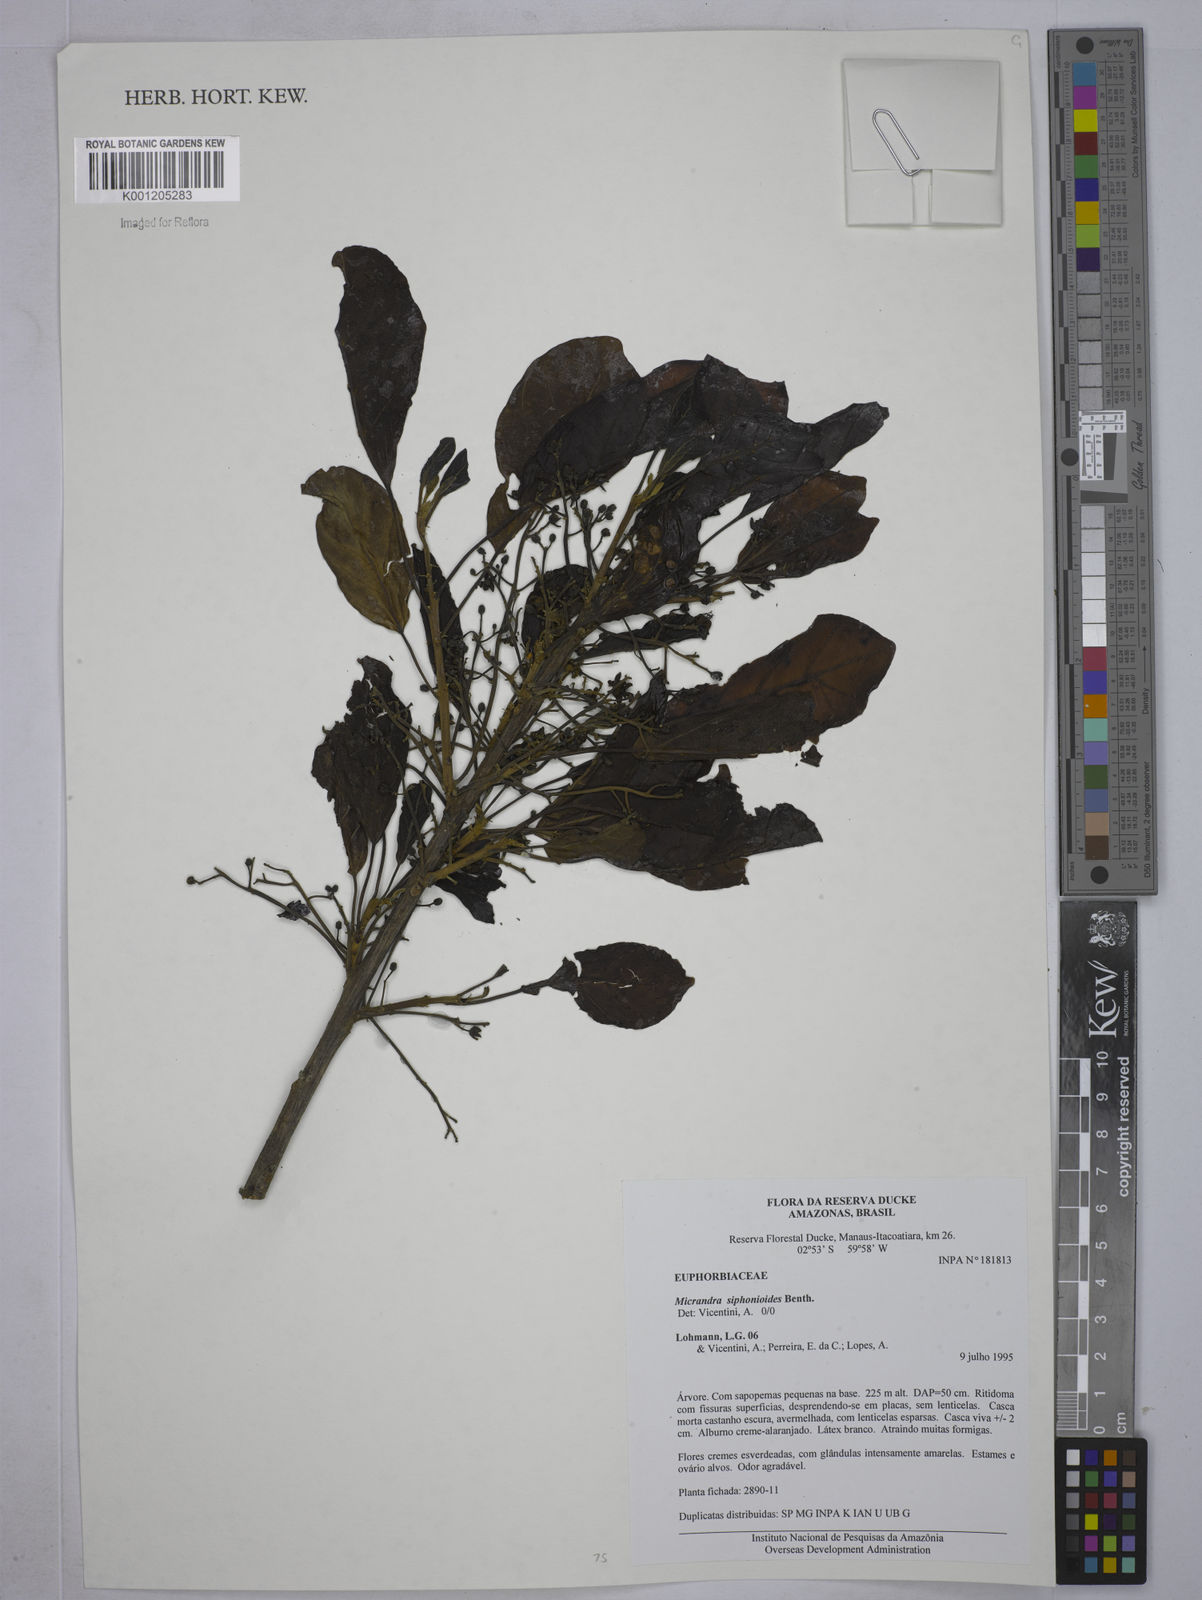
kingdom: Plantae
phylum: Tracheophyta
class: Magnoliopsida
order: Malpighiales
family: Euphorbiaceae
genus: Micrandra
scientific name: Micrandra siphonioides
